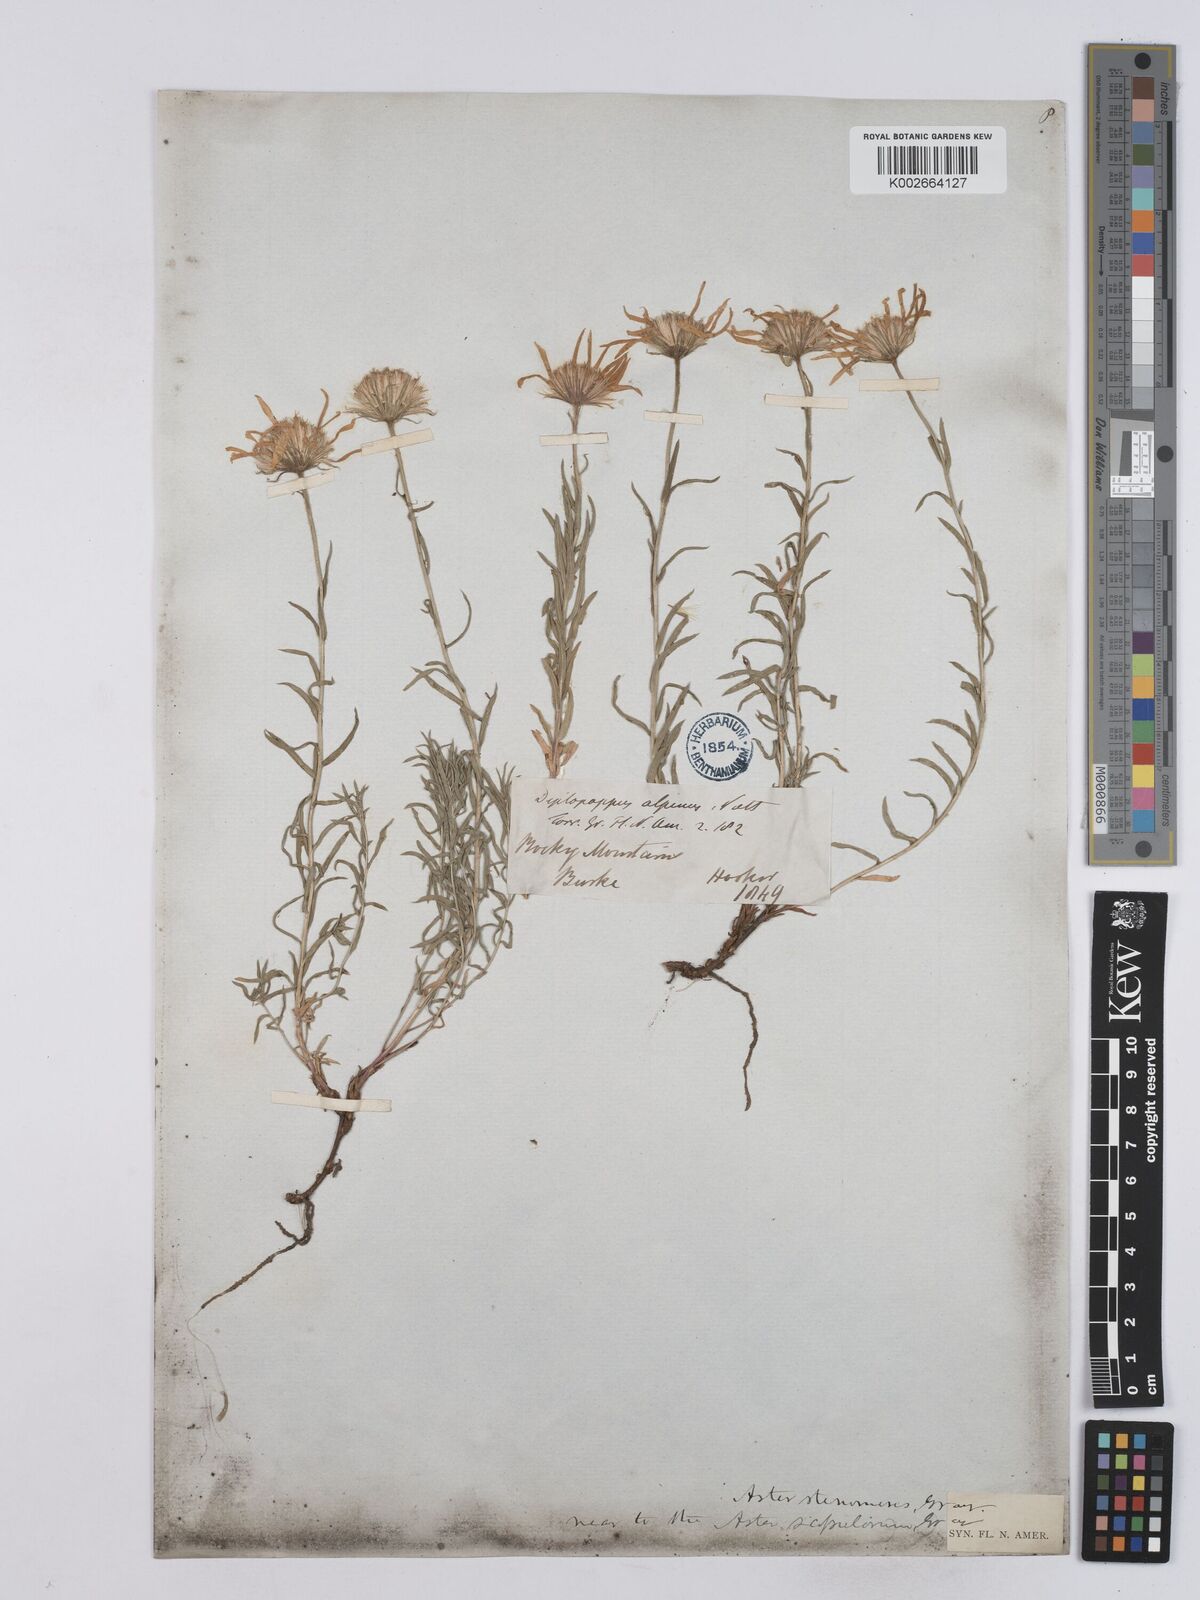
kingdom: Plantae
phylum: Tracheophyta
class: Magnoliopsida
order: Asterales
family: Asteraceae
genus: Ionactis
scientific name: Ionactis stenomeres
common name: Rocky mountain ankle-aster
